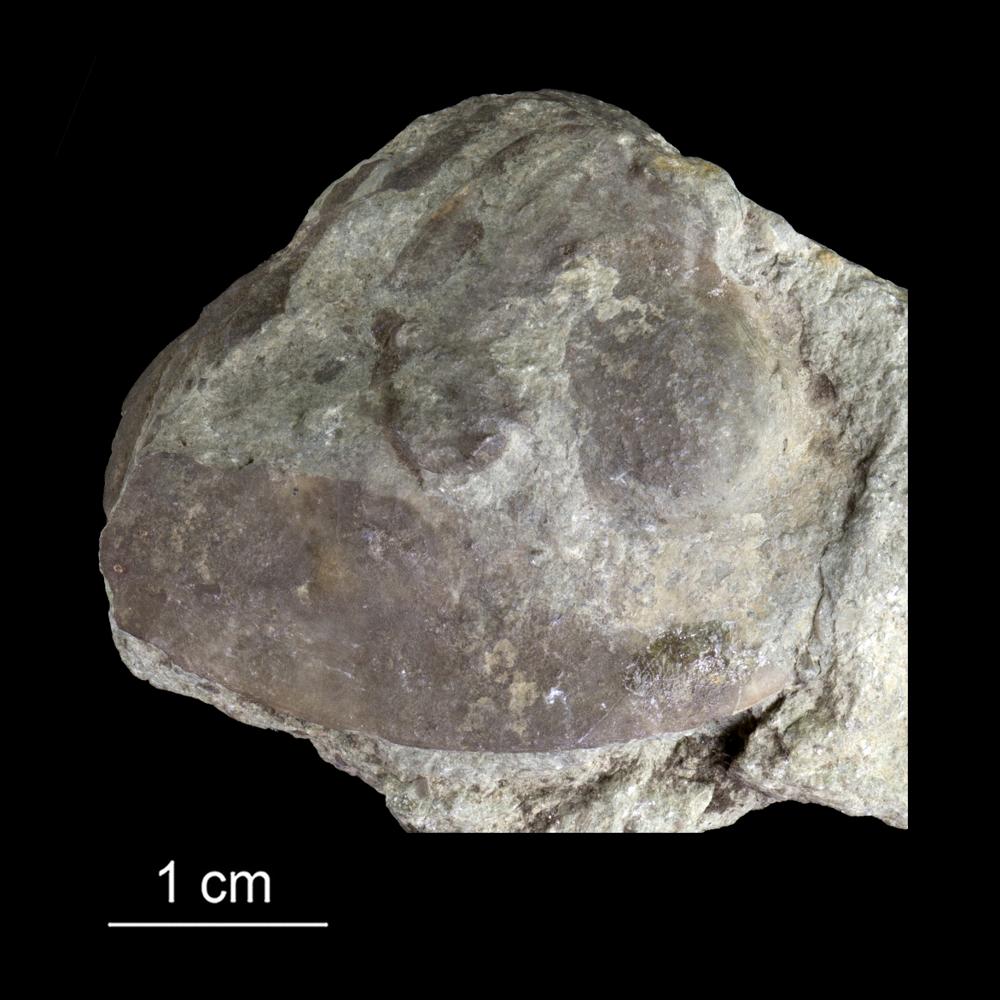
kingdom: Animalia
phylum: Arthropoda
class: Trilobita
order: Asaphida
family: Asaphidae
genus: Ptychopyge
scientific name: Ptychopyge
